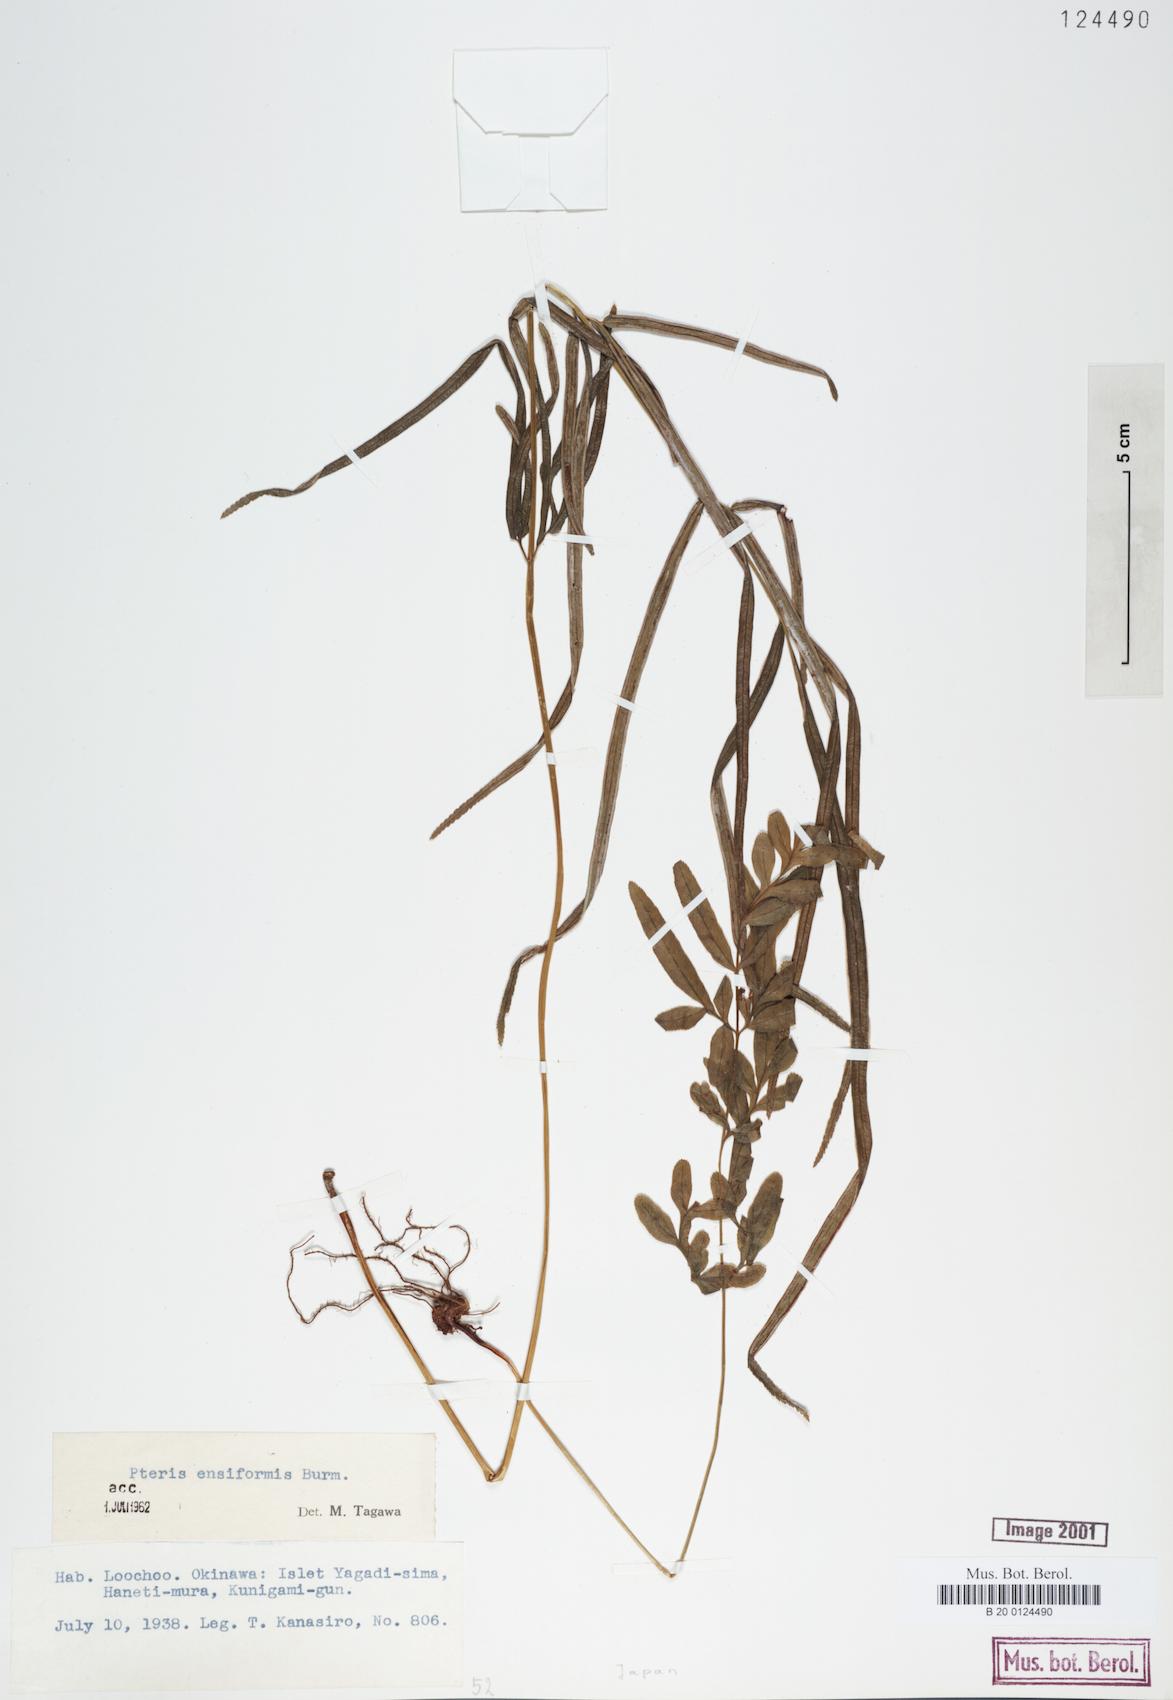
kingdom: Plantae
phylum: Tracheophyta
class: Polypodiopsida
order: Polypodiales
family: Pteridaceae
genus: Pteris
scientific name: Pteris ensiformis
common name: Sword brake
